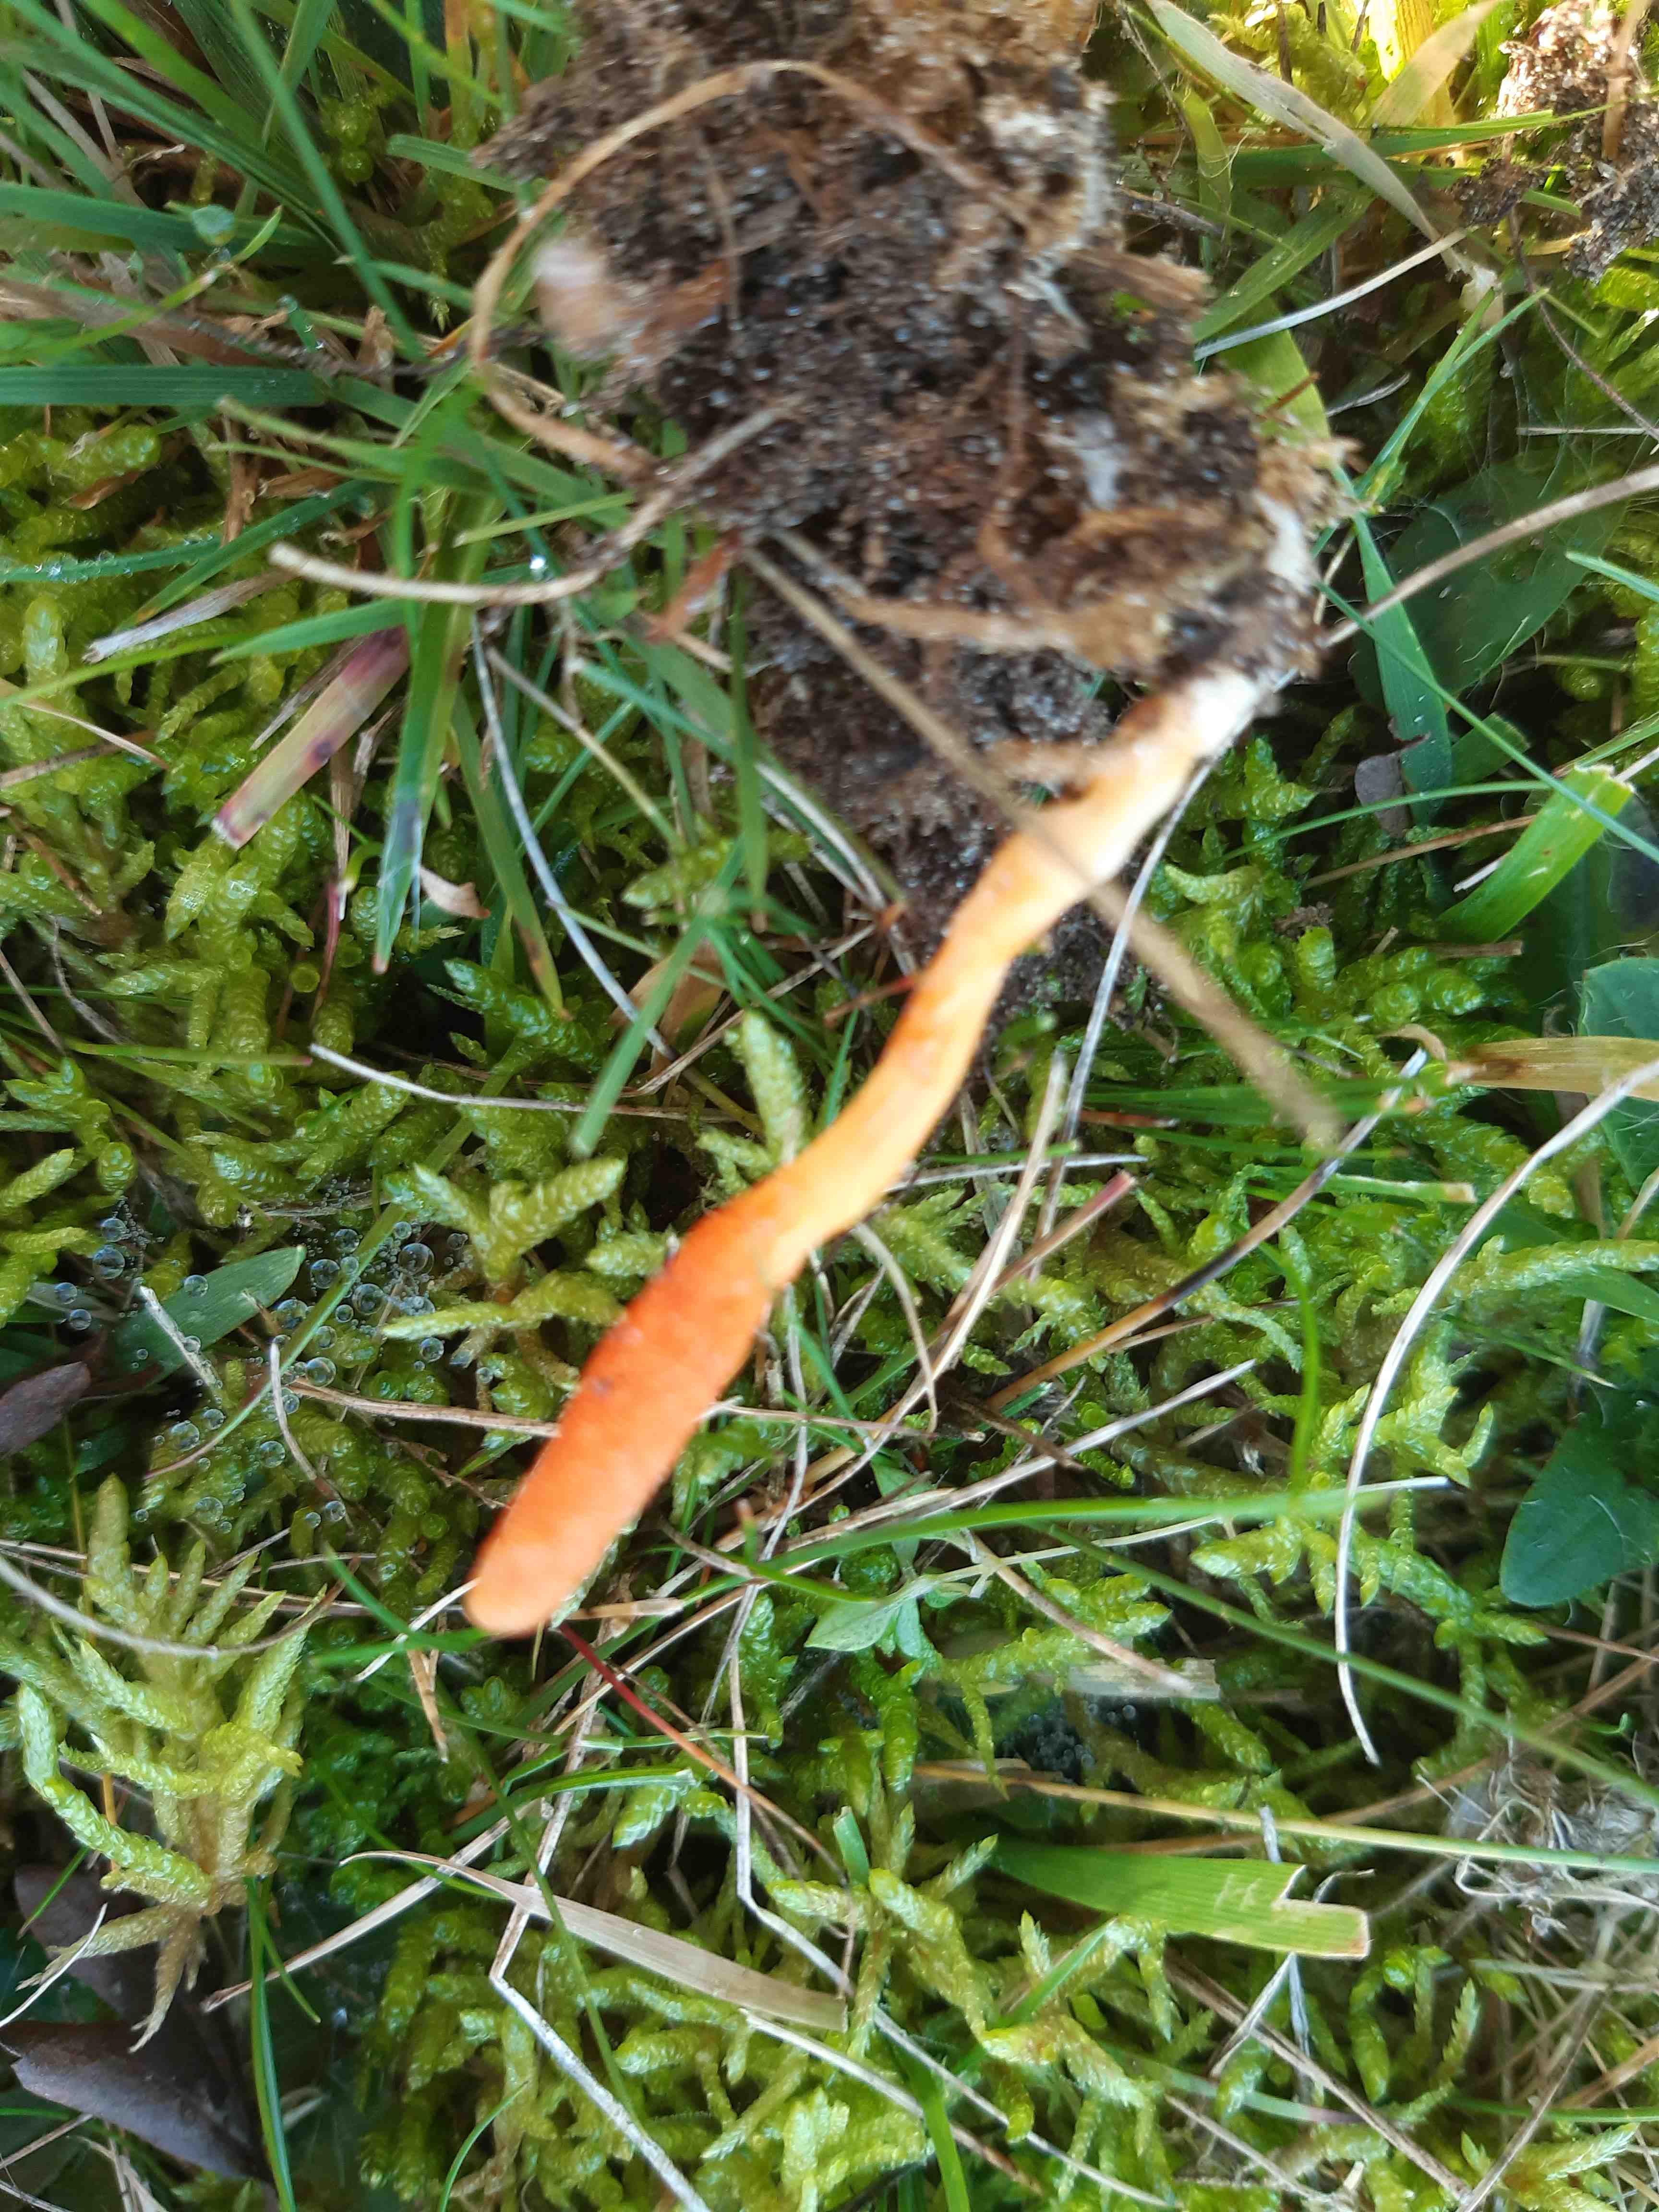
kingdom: Fungi
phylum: Ascomycota
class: Sordariomycetes
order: Hypocreales
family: Cordycipitaceae
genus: Cordyceps
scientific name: Cordyceps militaris
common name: puppe-snyltekølle
